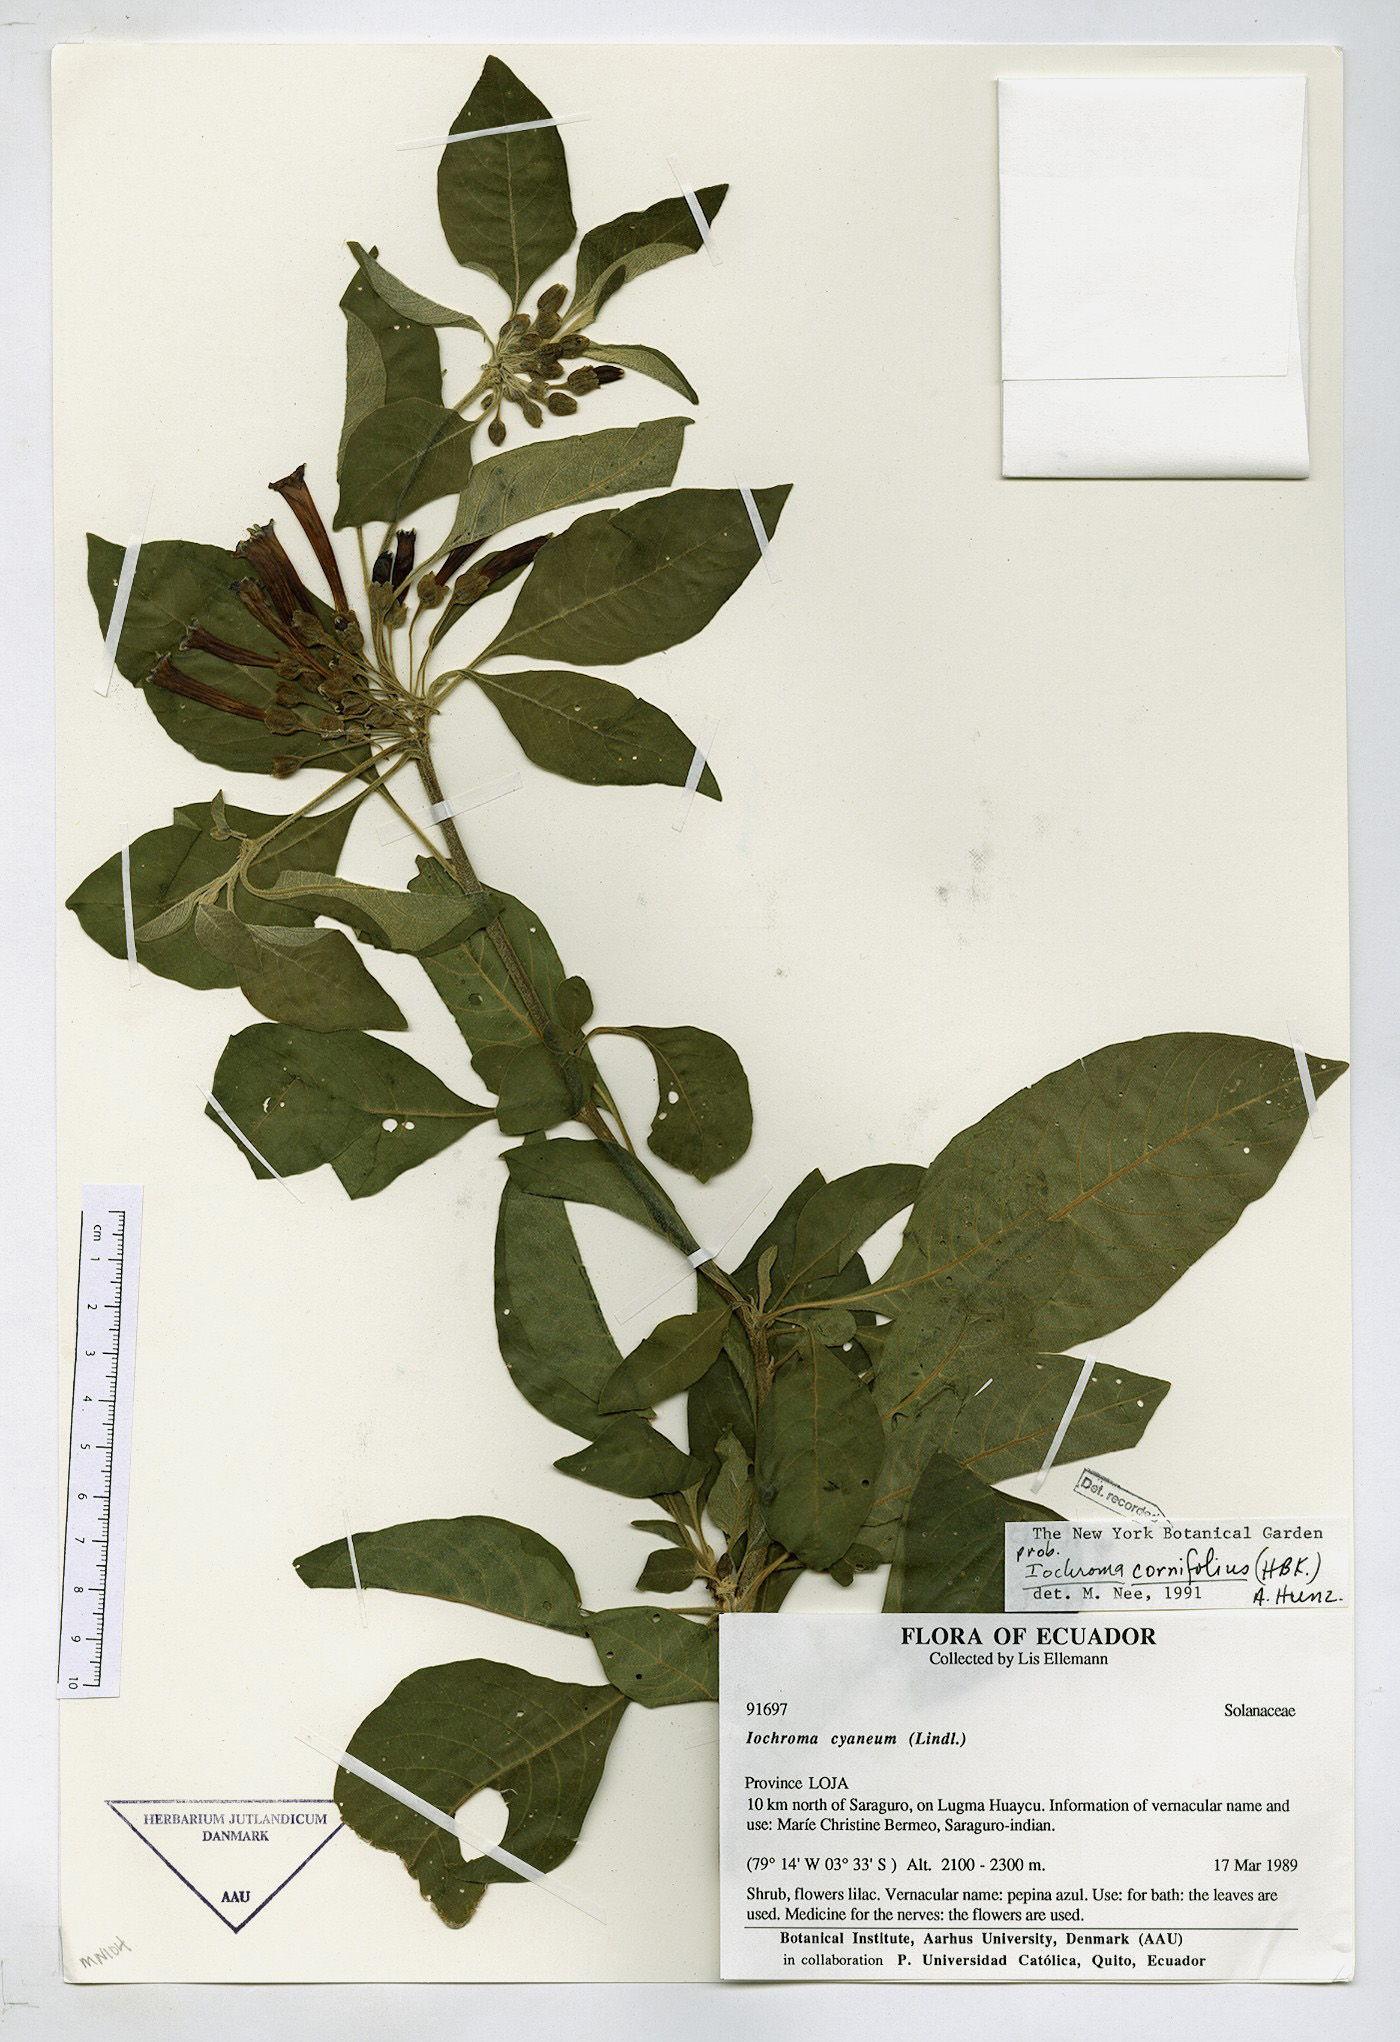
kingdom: Plantae
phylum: Tracheophyta
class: Magnoliopsida
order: Solanales
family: Solanaceae
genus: Iochroma
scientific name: Iochroma cornifolium
